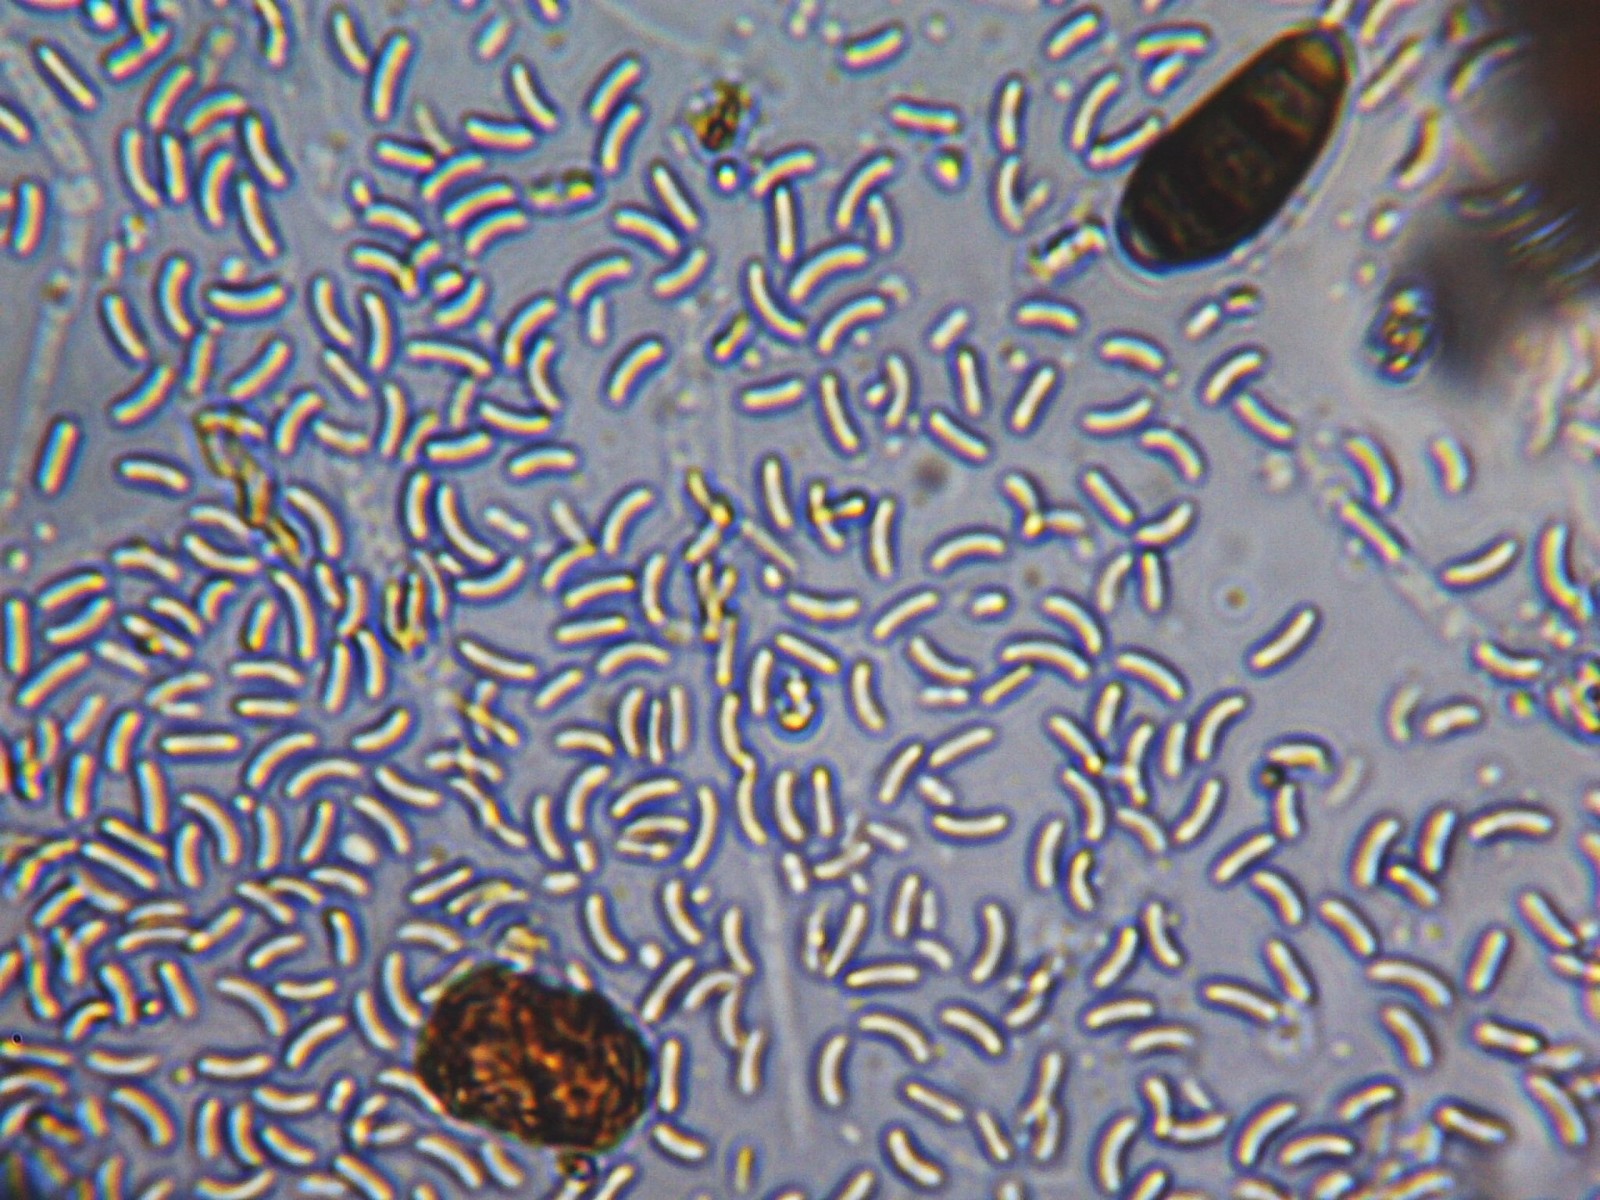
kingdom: Fungi
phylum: Ascomycota
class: Sordariomycetes
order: Xylariales
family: Diatrypaceae
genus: Diatrype
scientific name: Diatrype
